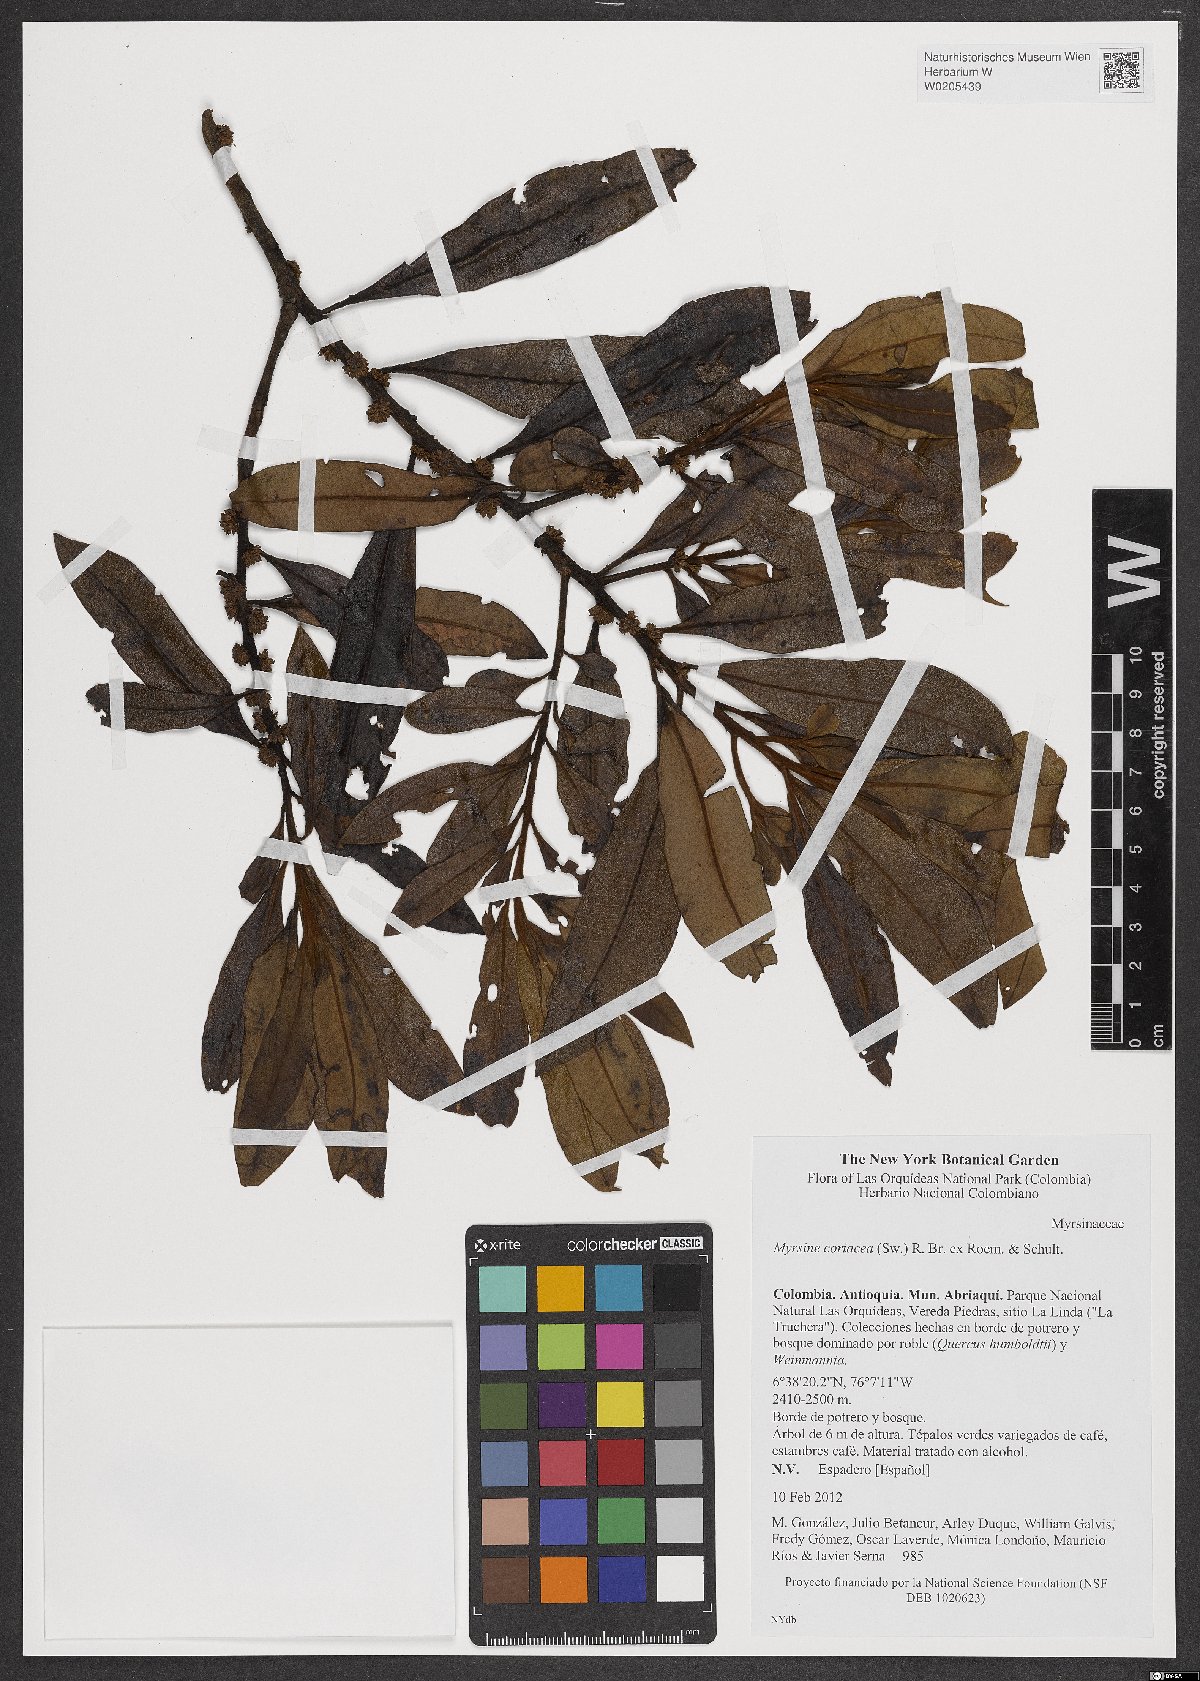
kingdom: Plantae
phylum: Tracheophyta
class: Magnoliopsida
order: Ericales
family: Primulaceae
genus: Myrsine
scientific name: Myrsine coriacea
